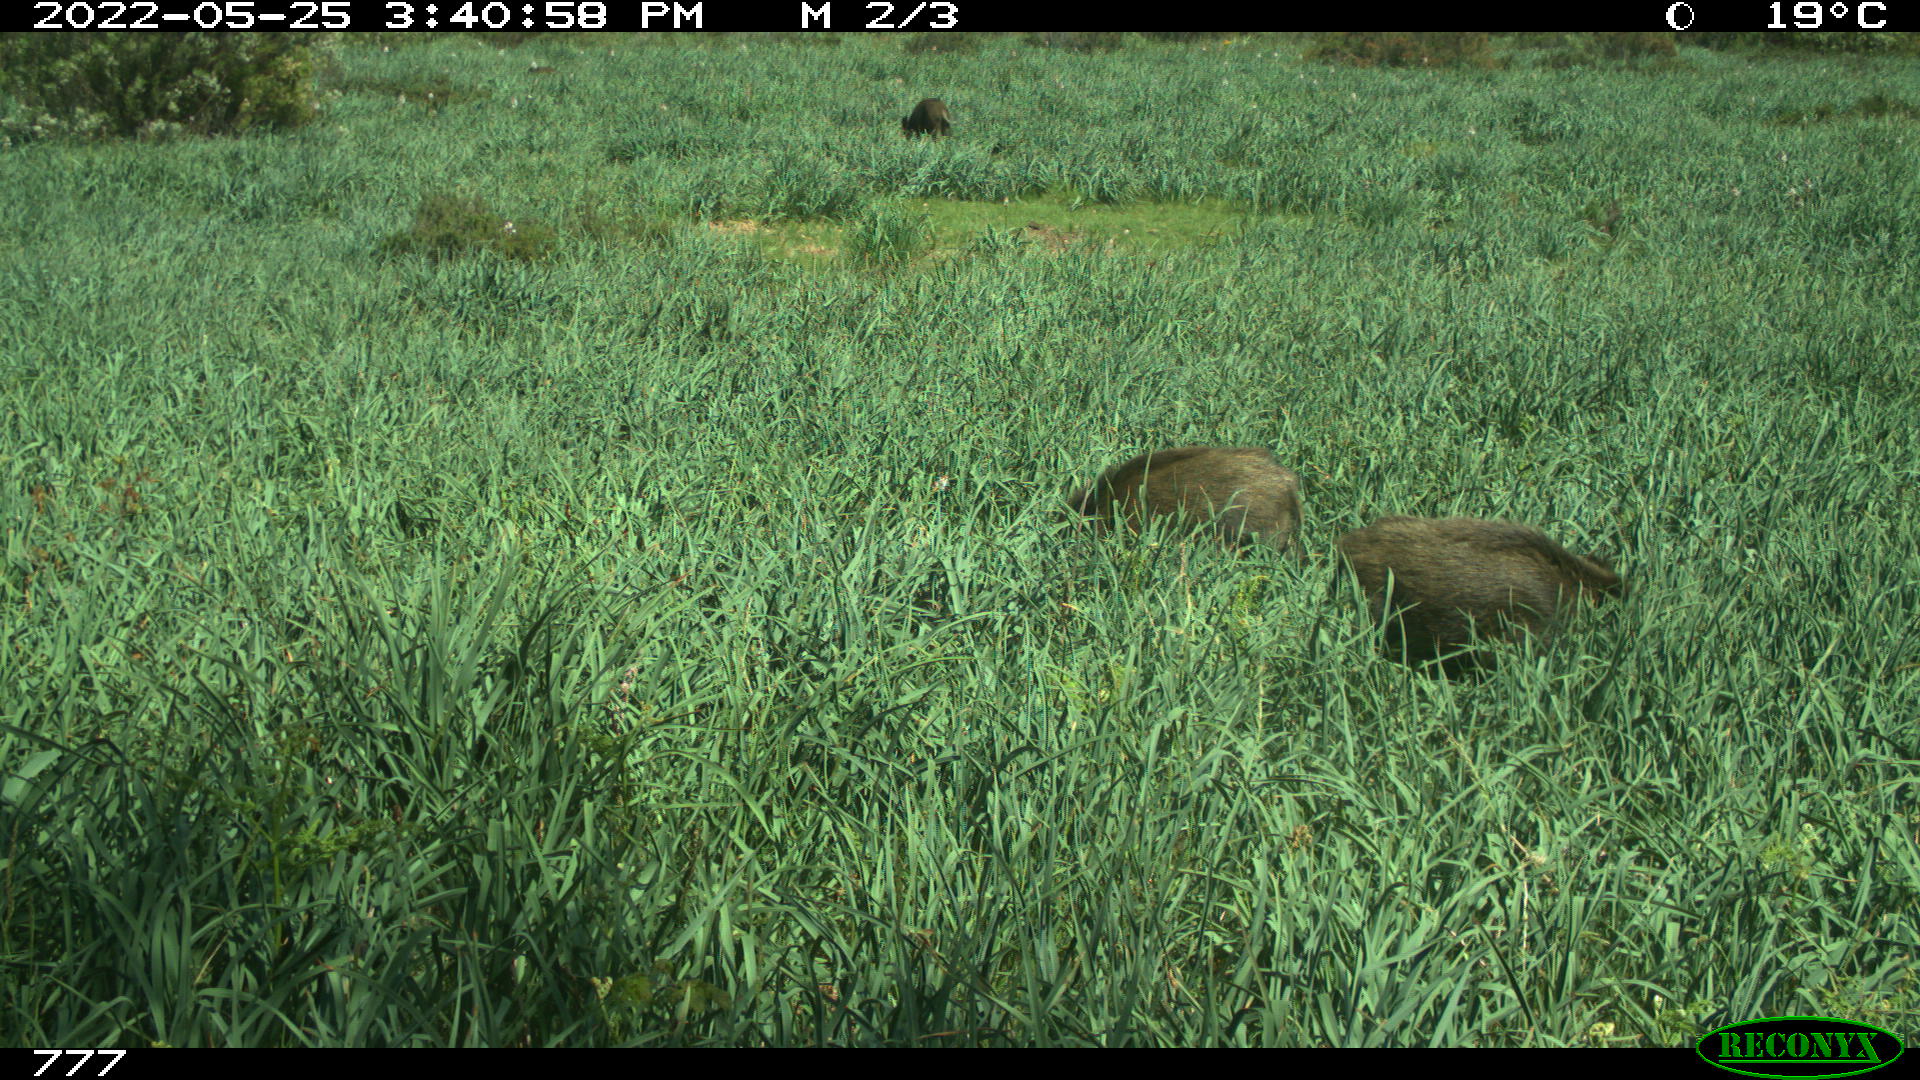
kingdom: Animalia
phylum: Chordata
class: Mammalia
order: Artiodactyla
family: Suidae
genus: Sus
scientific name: Sus scrofa
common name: Wild boar
